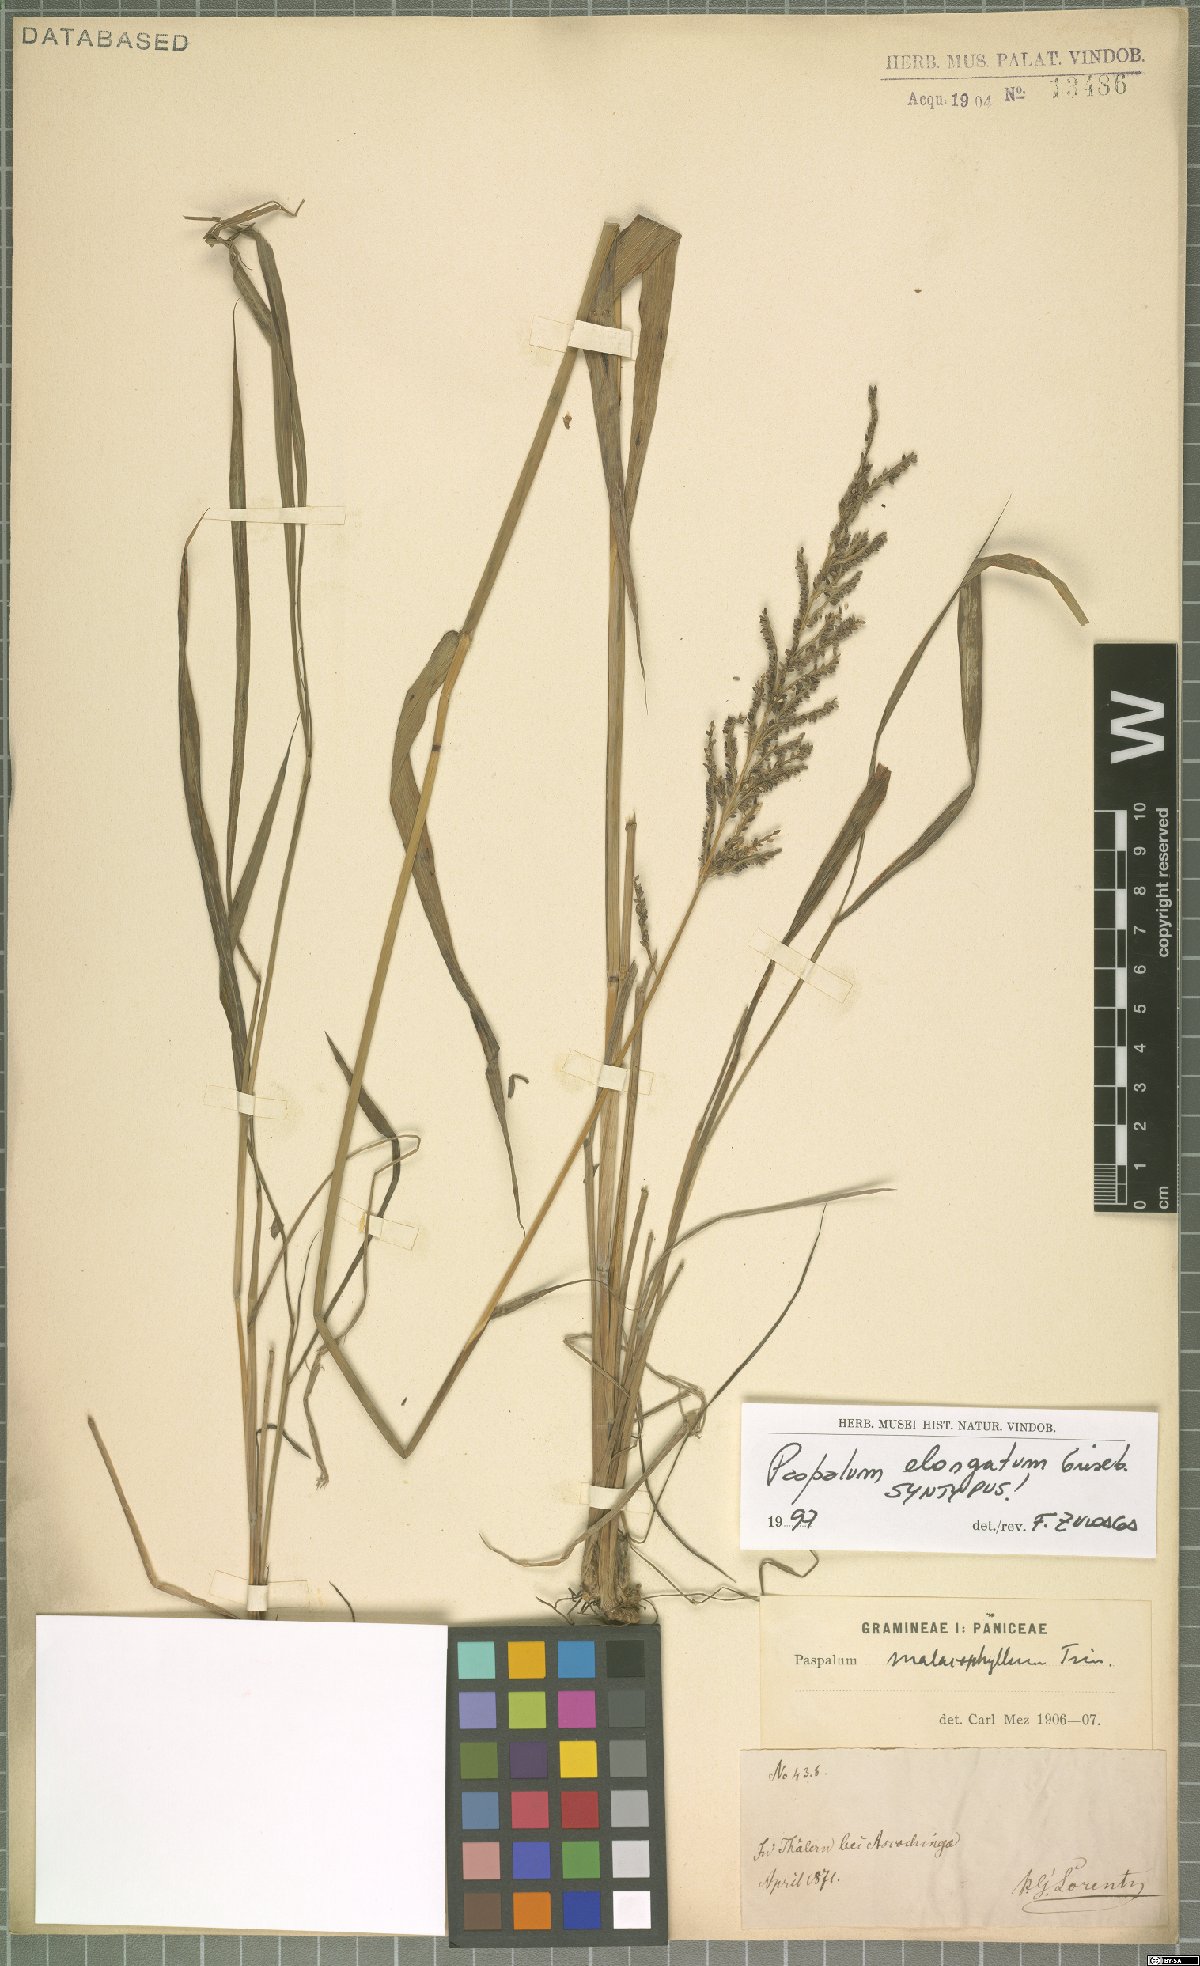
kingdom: Plantae
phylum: Tracheophyta
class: Liliopsida
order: Poales
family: Poaceae
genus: Paspalum
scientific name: Paspalum malacophyllum
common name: Ribbed paspalum
